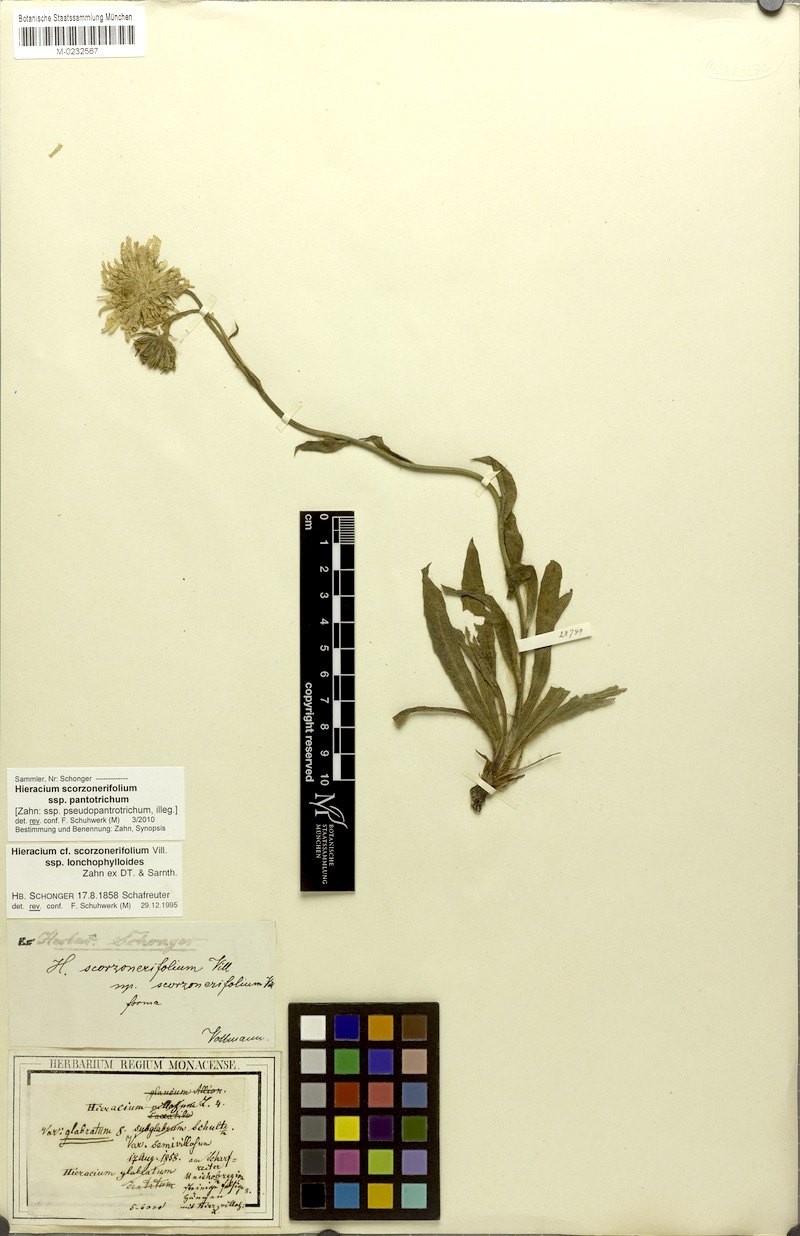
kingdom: Plantae
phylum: Tracheophyta
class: Magnoliopsida
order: Asterales
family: Asteraceae
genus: Hieracium
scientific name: Hieracium scorzonerifolium
